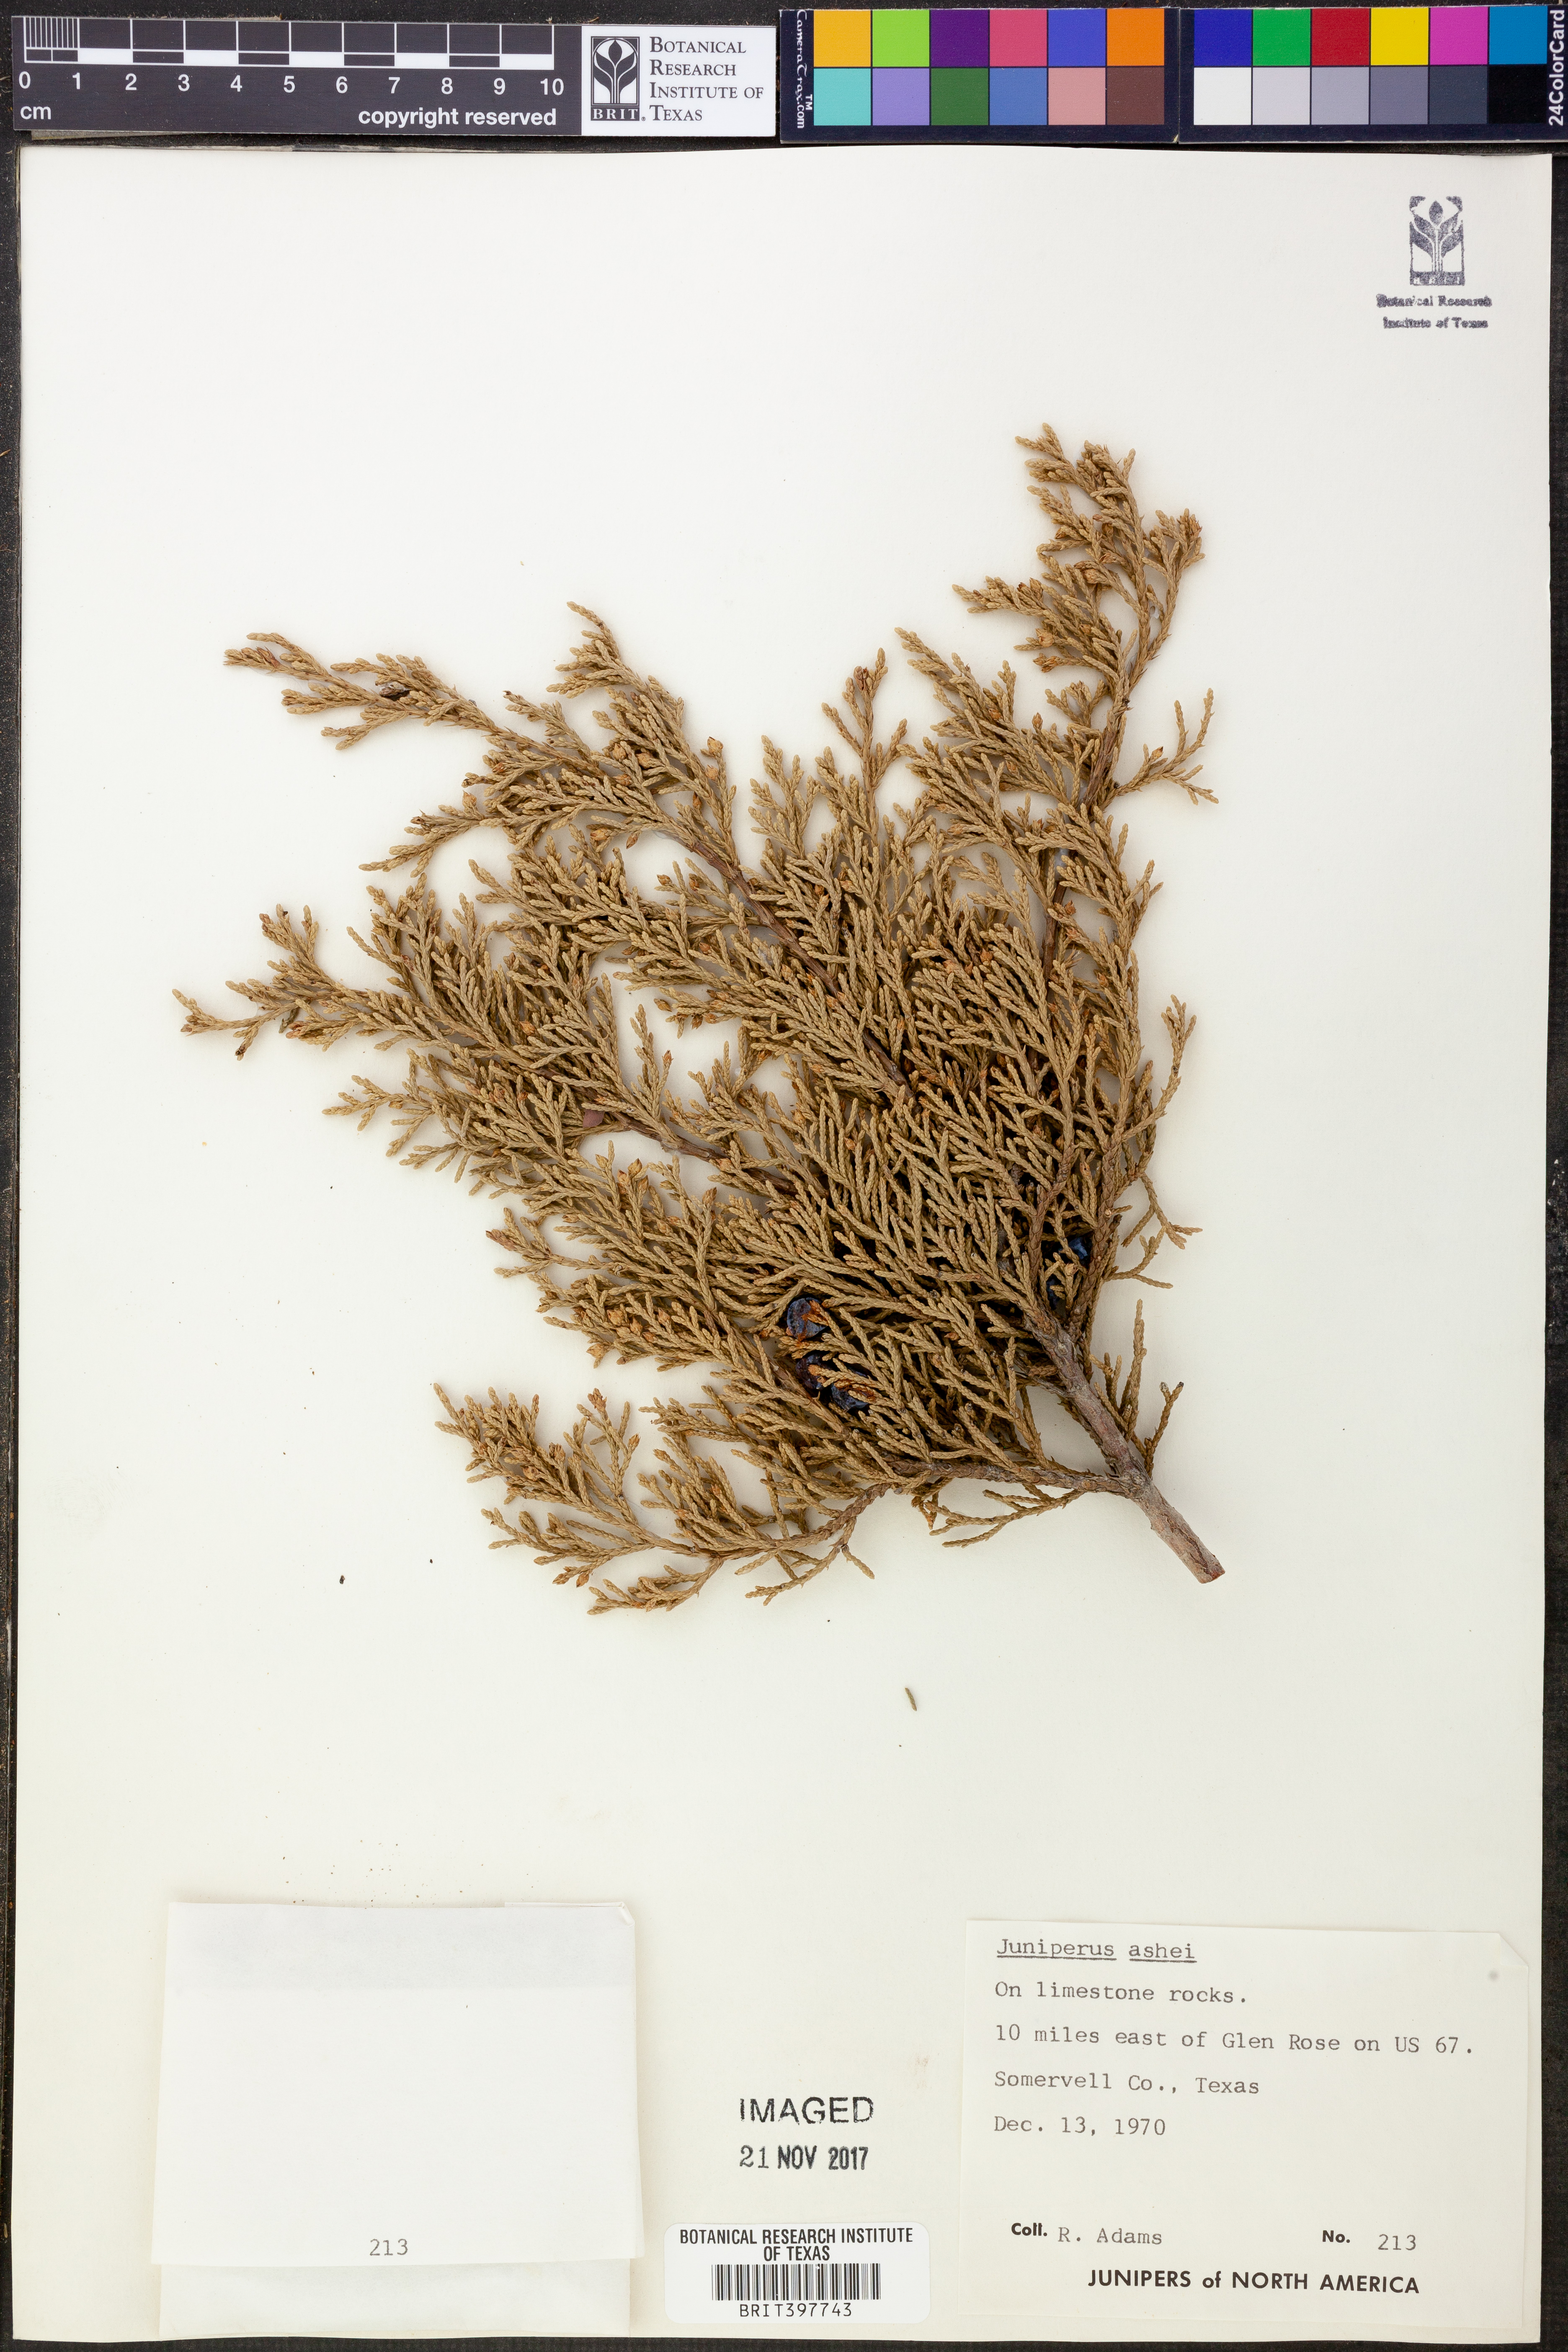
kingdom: Plantae
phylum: Tracheophyta
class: Pinopsida
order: Pinales
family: Cupressaceae
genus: Juniperus
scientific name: Juniperus ashei
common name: Mexican juniper
